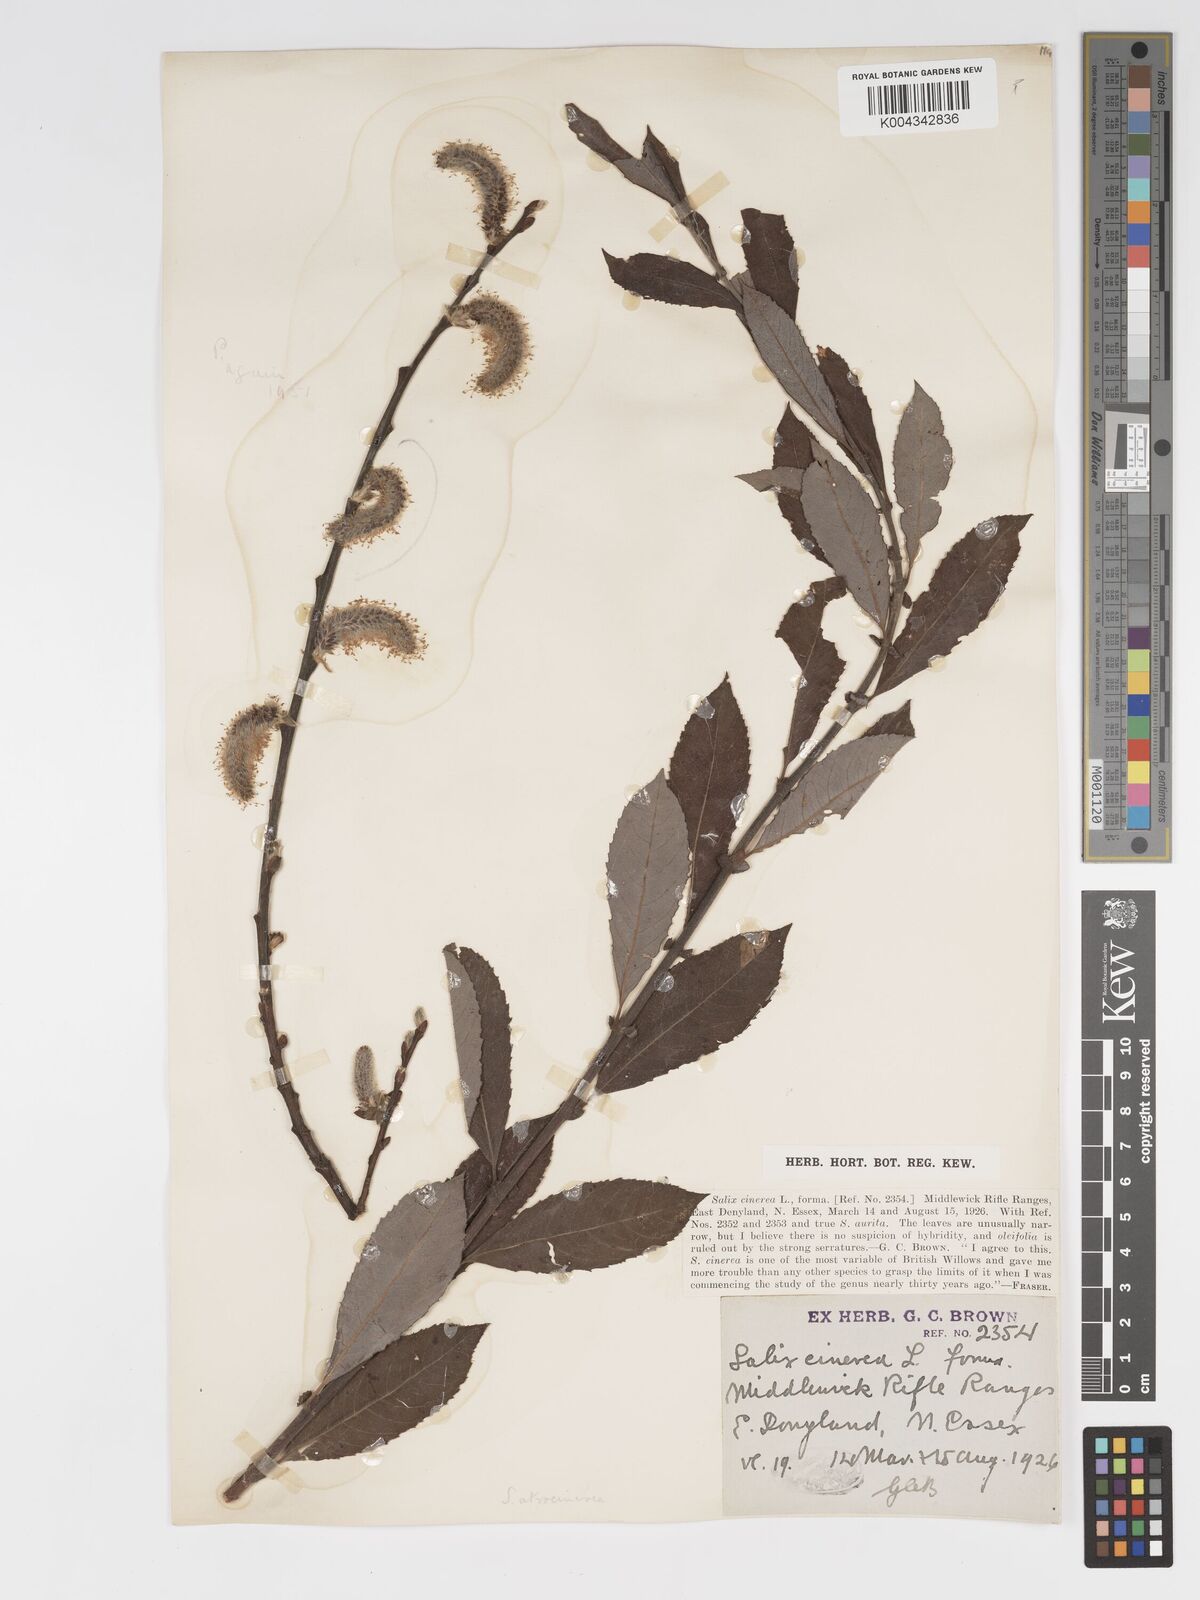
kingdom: Plantae
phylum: Tracheophyta
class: Magnoliopsida
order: Malpighiales
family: Salicaceae
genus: Salix
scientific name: Salix atrocinerea
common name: Rusty willow
